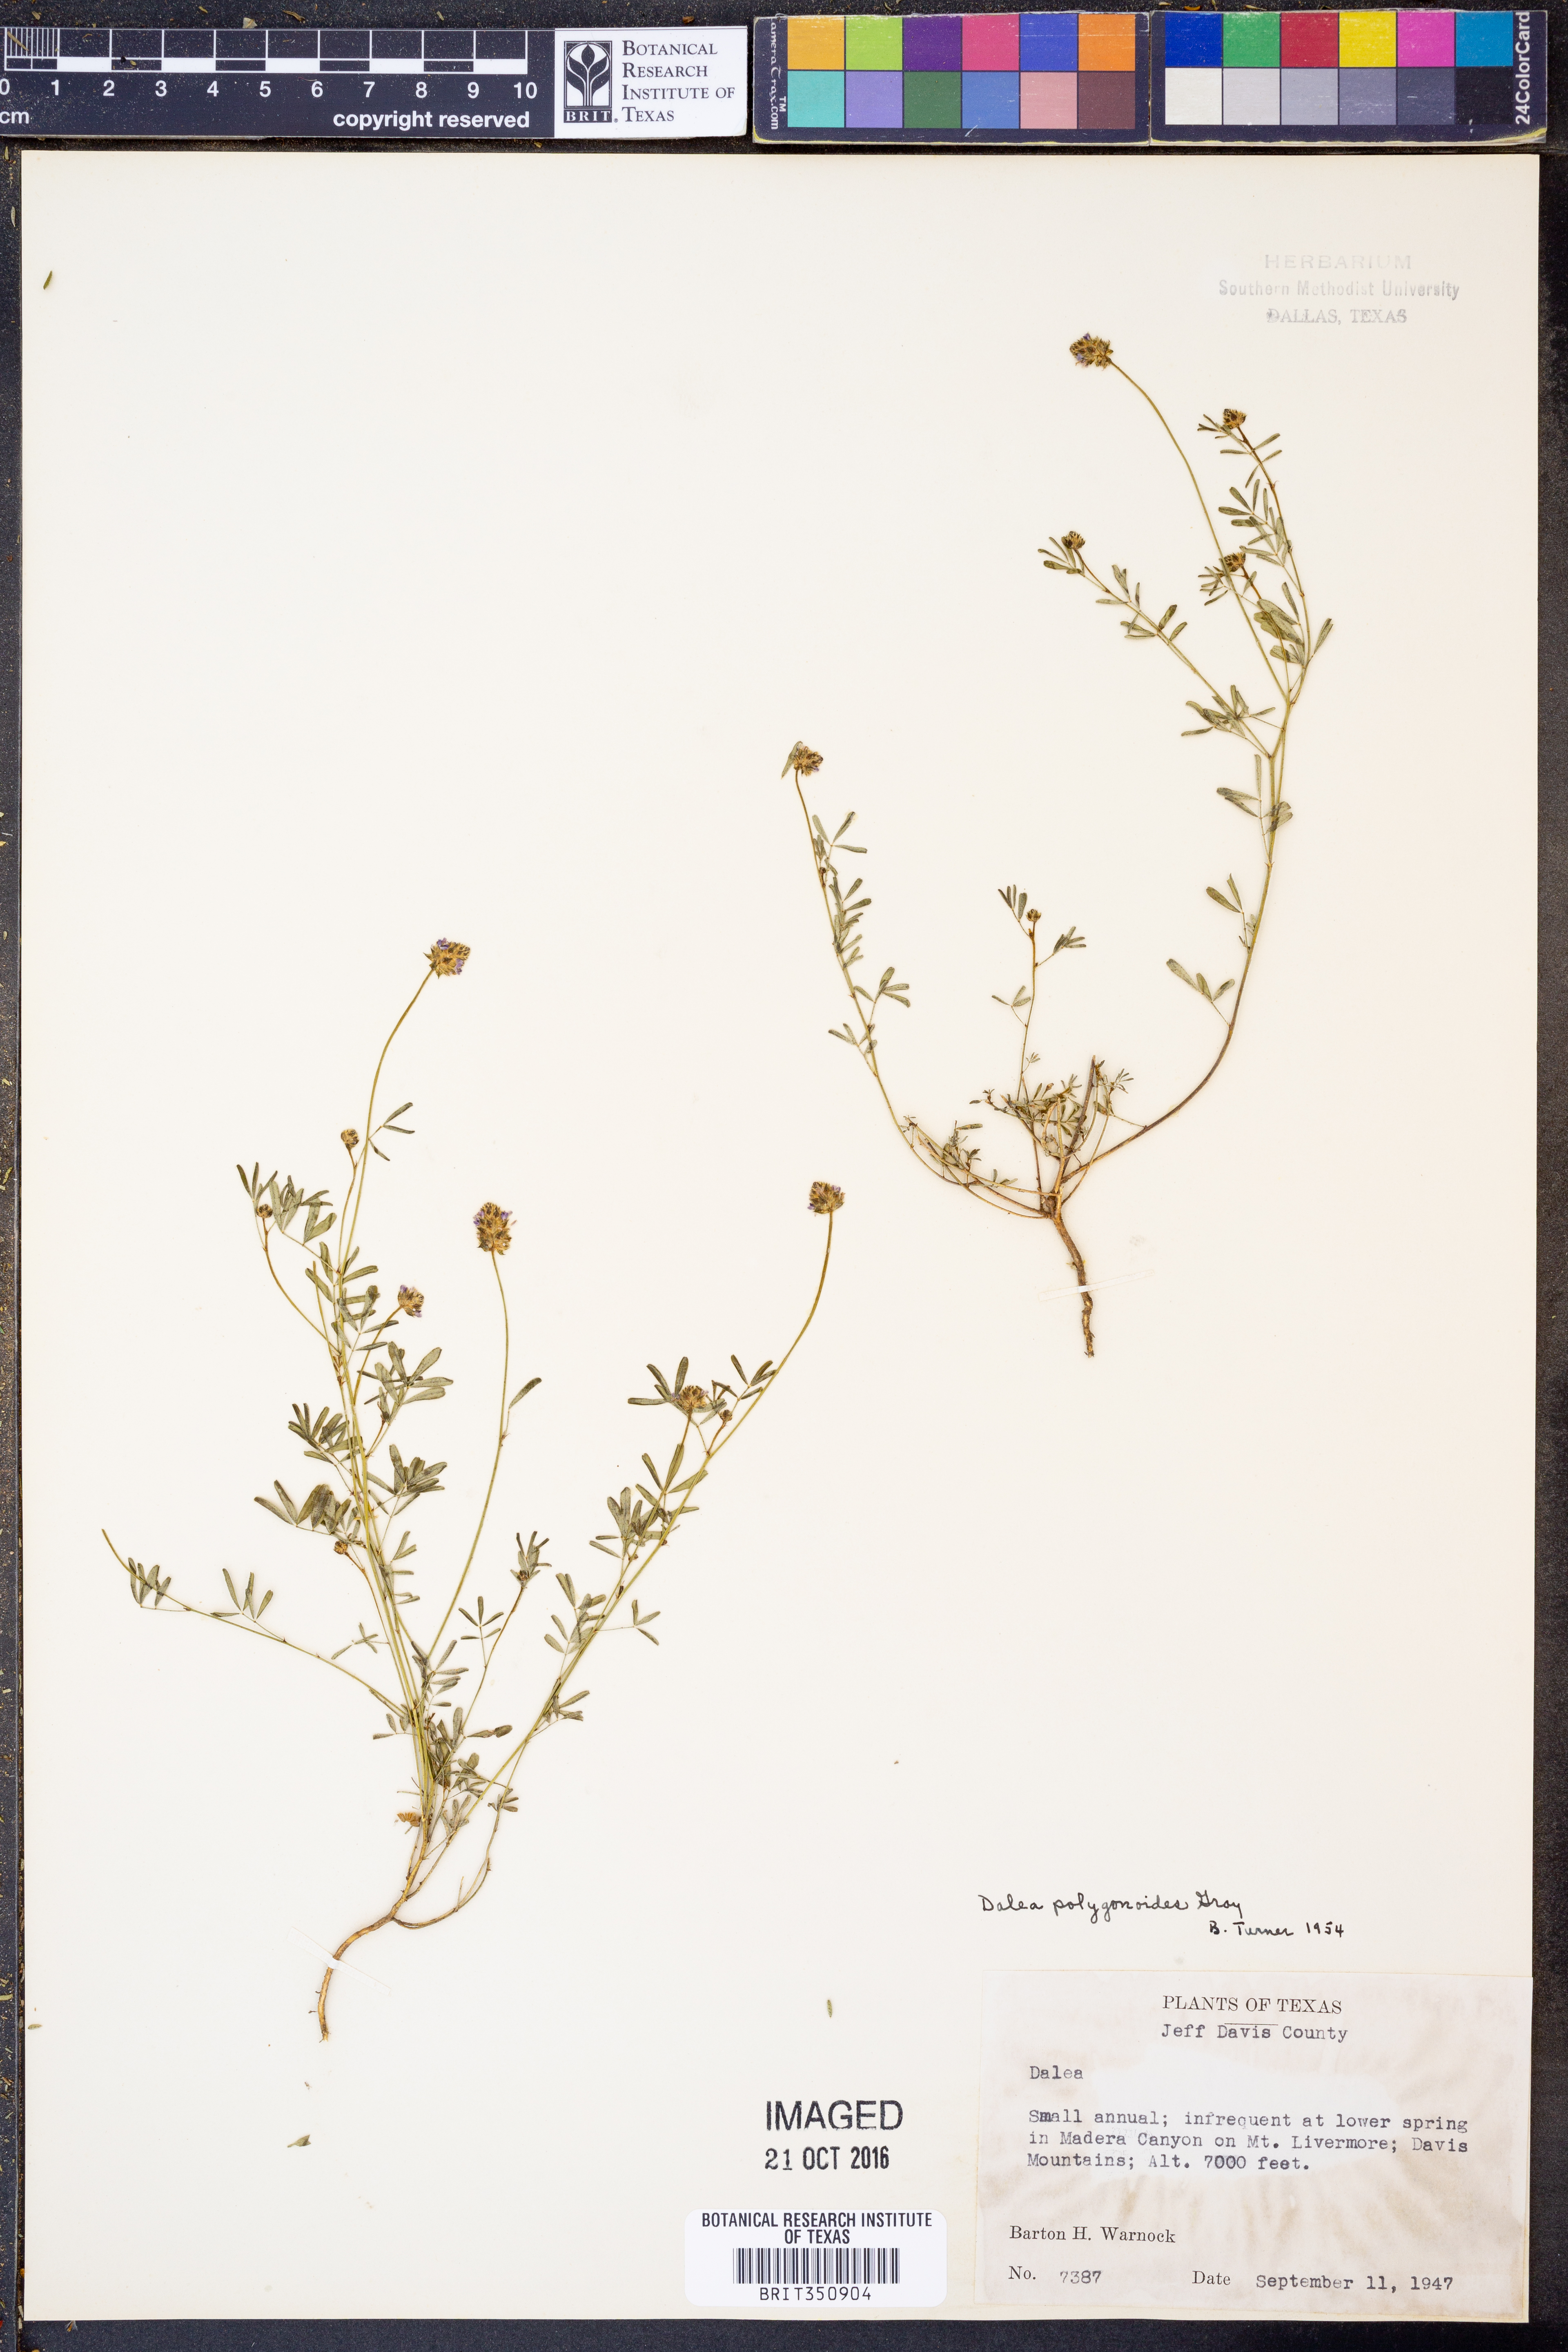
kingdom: Plantae
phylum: Tracheophyta
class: Magnoliopsida
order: Fabales
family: Fabaceae
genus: Dalea
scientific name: Dalea polygonoides
